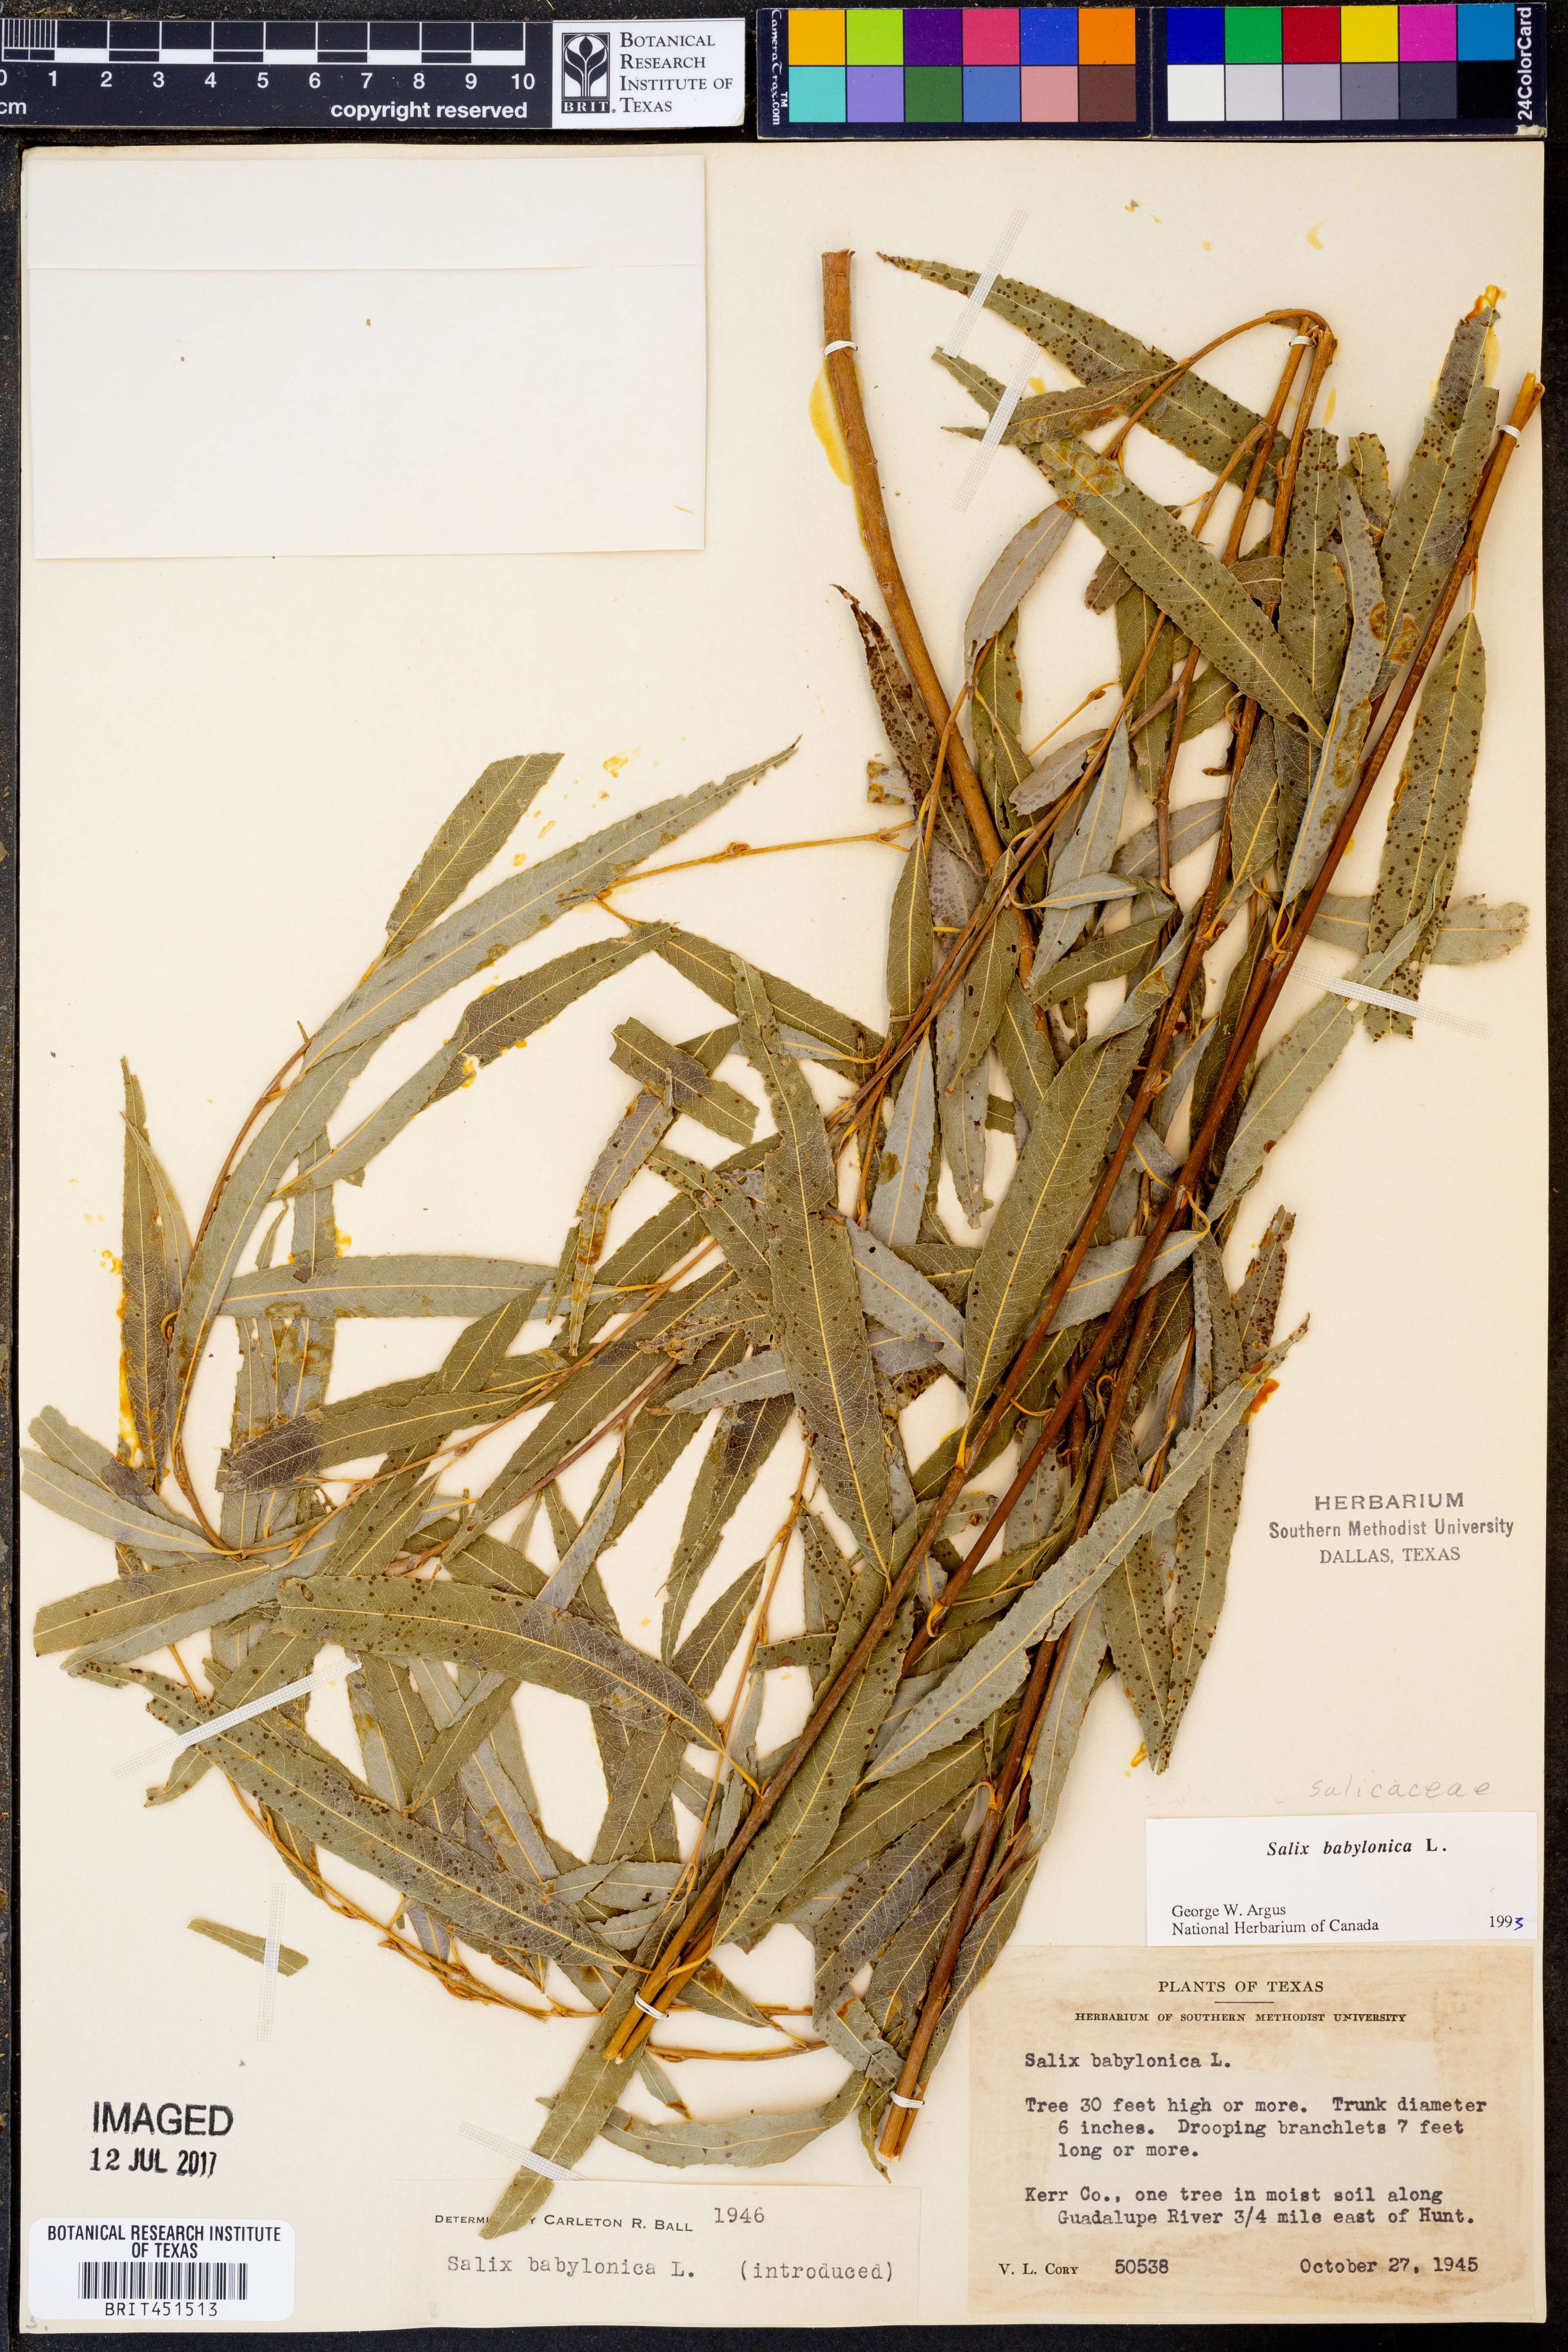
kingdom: Plantae
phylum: Tracheophyta
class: Magnoliopsida
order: Malpighiales
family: Salicaceae
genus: Salix
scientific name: Salix babylonica
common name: Weeping willow
